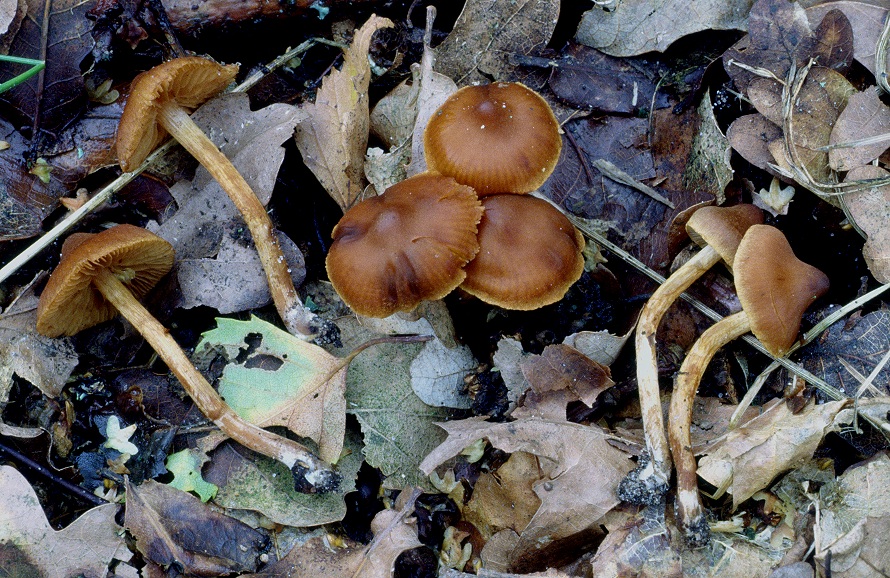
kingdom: Fungi
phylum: Basidiomycota
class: Agaricomycetes
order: Agaricales
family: Cortinariaceae
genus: Cortinarius
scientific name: Cortinarius saniosus
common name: gultrævlet slørhat
